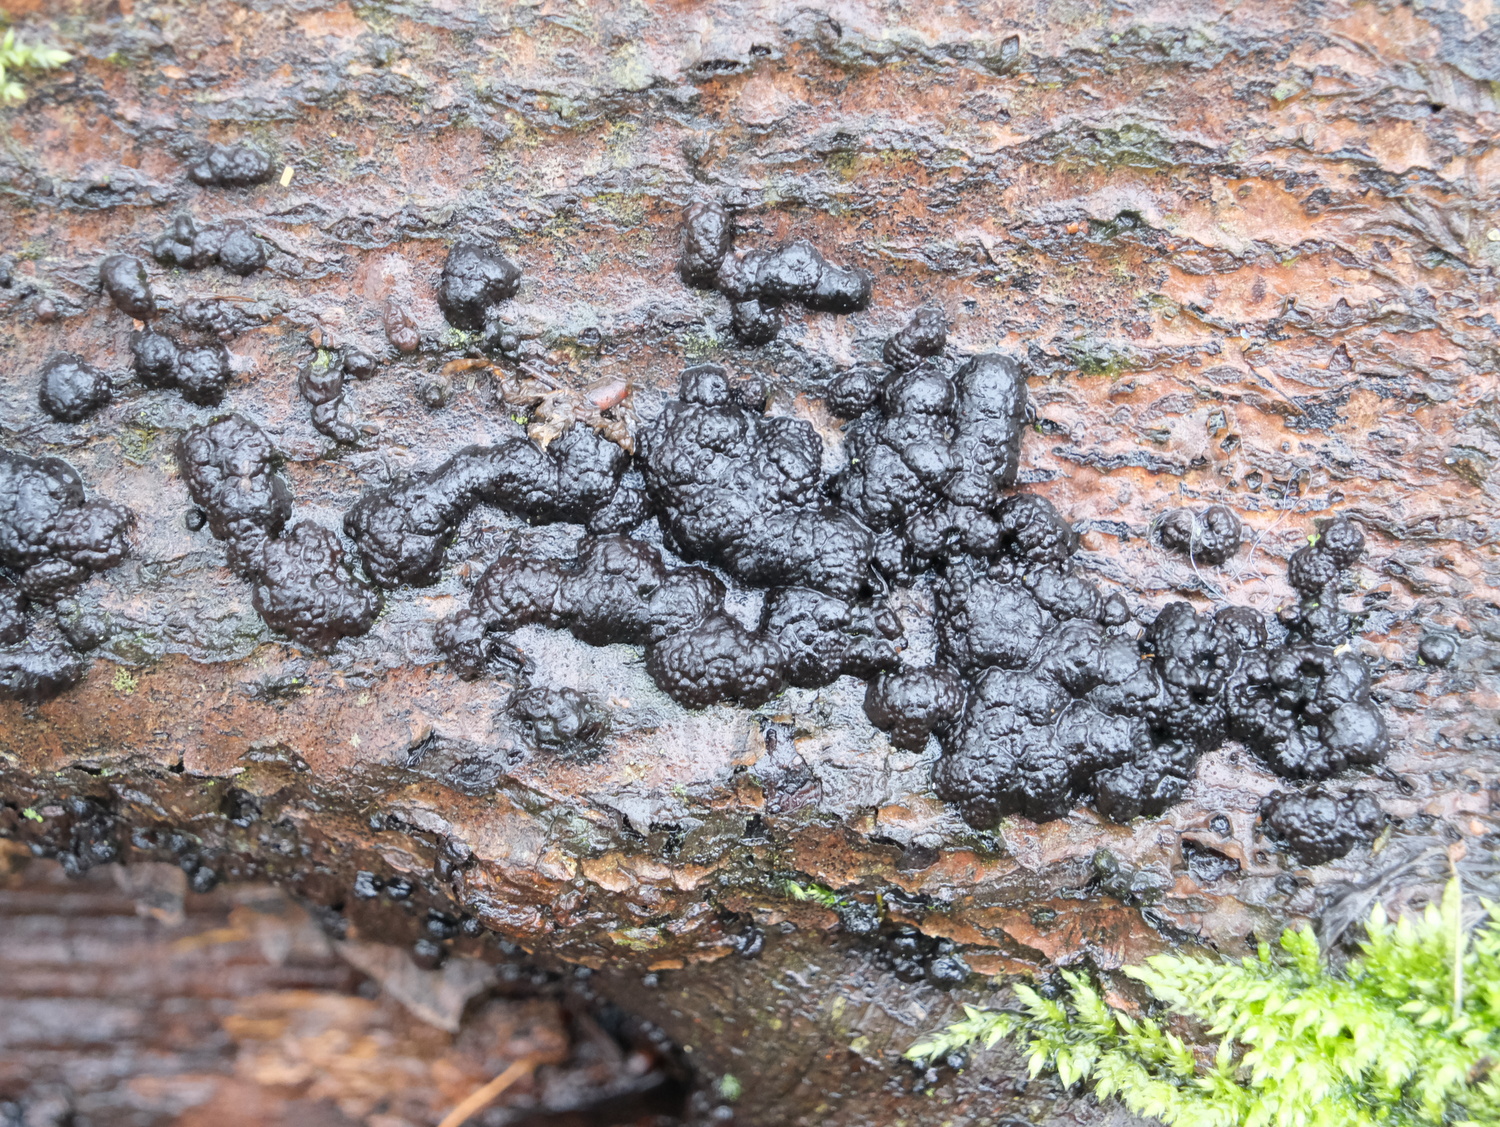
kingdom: Fungi
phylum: Ascomycota
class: Sordariomycetes
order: Xylariales
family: Hypoxylaceae
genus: Jackrogersella
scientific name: Jackrogersella cohaerens
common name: sammenflydende kulbær
